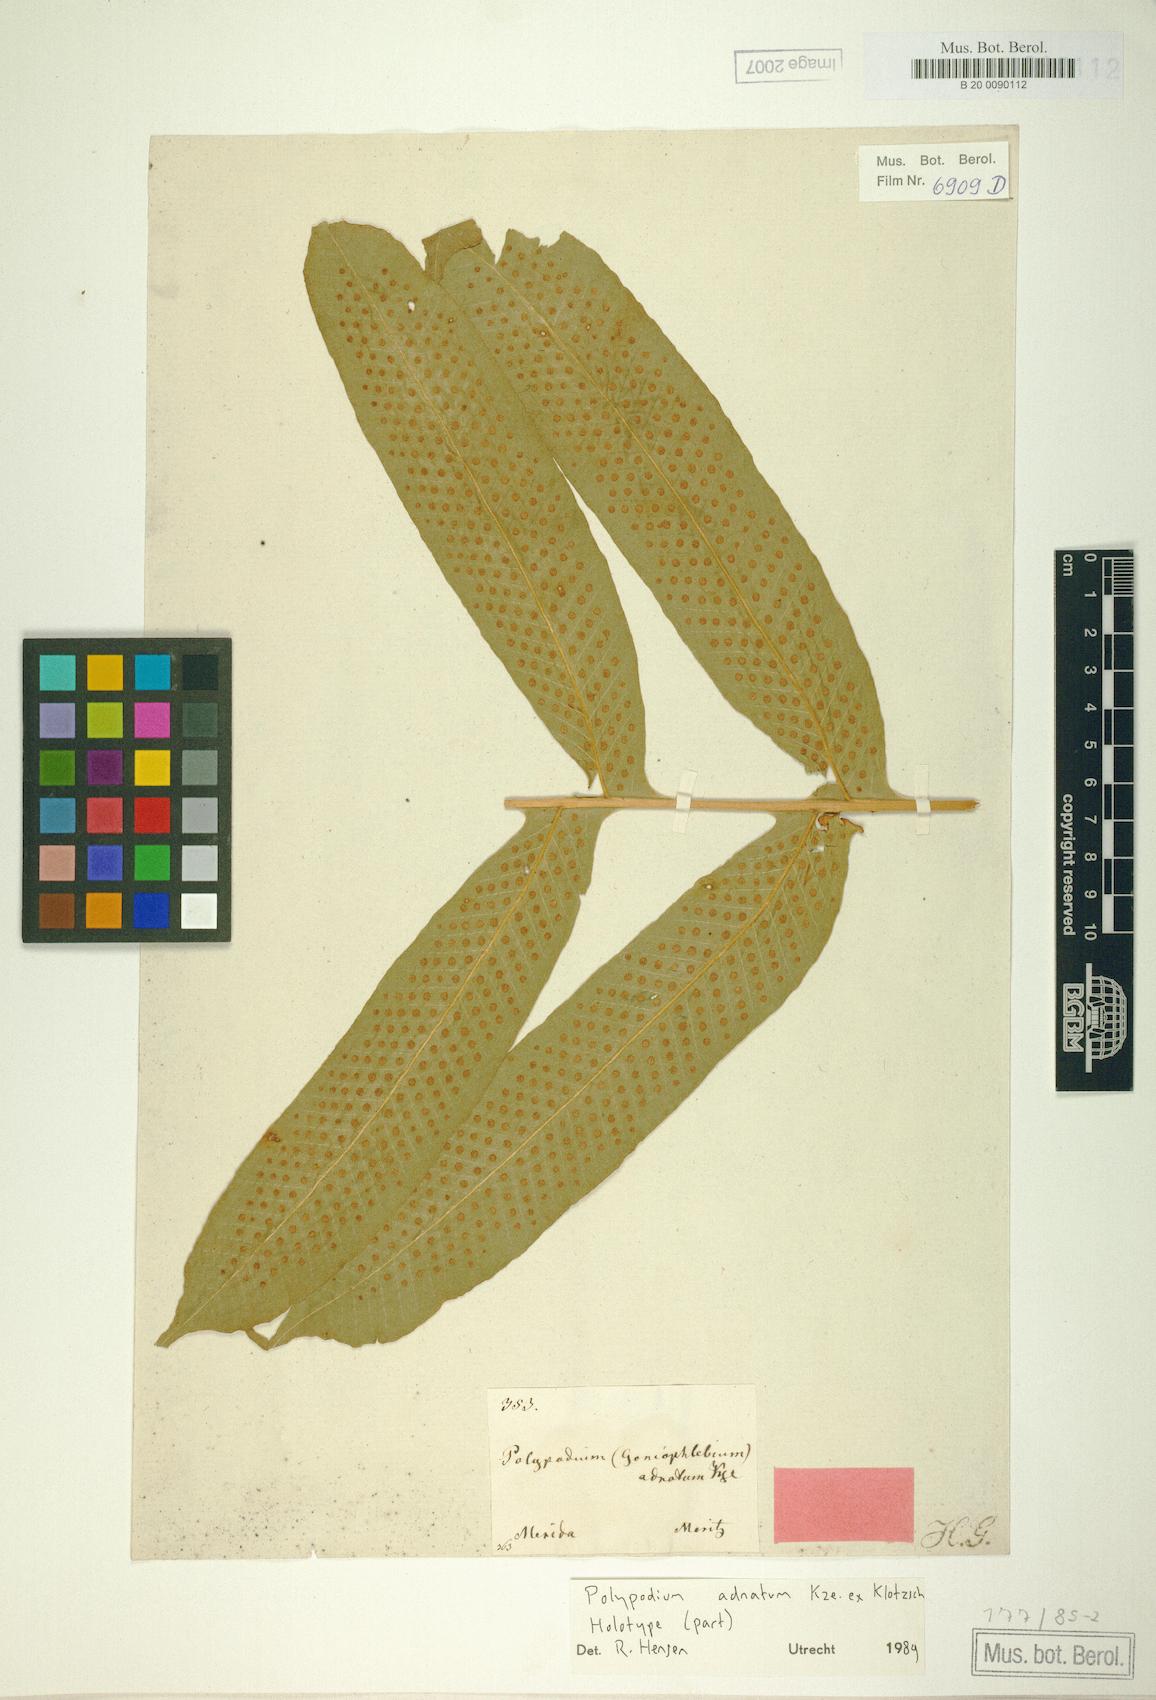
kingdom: Plantae
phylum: Tracheophyta
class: Polypodiopsida
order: Polypodiales
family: Polypodiaceae
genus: Serpocaulon
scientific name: Serpocaulon adnatum
